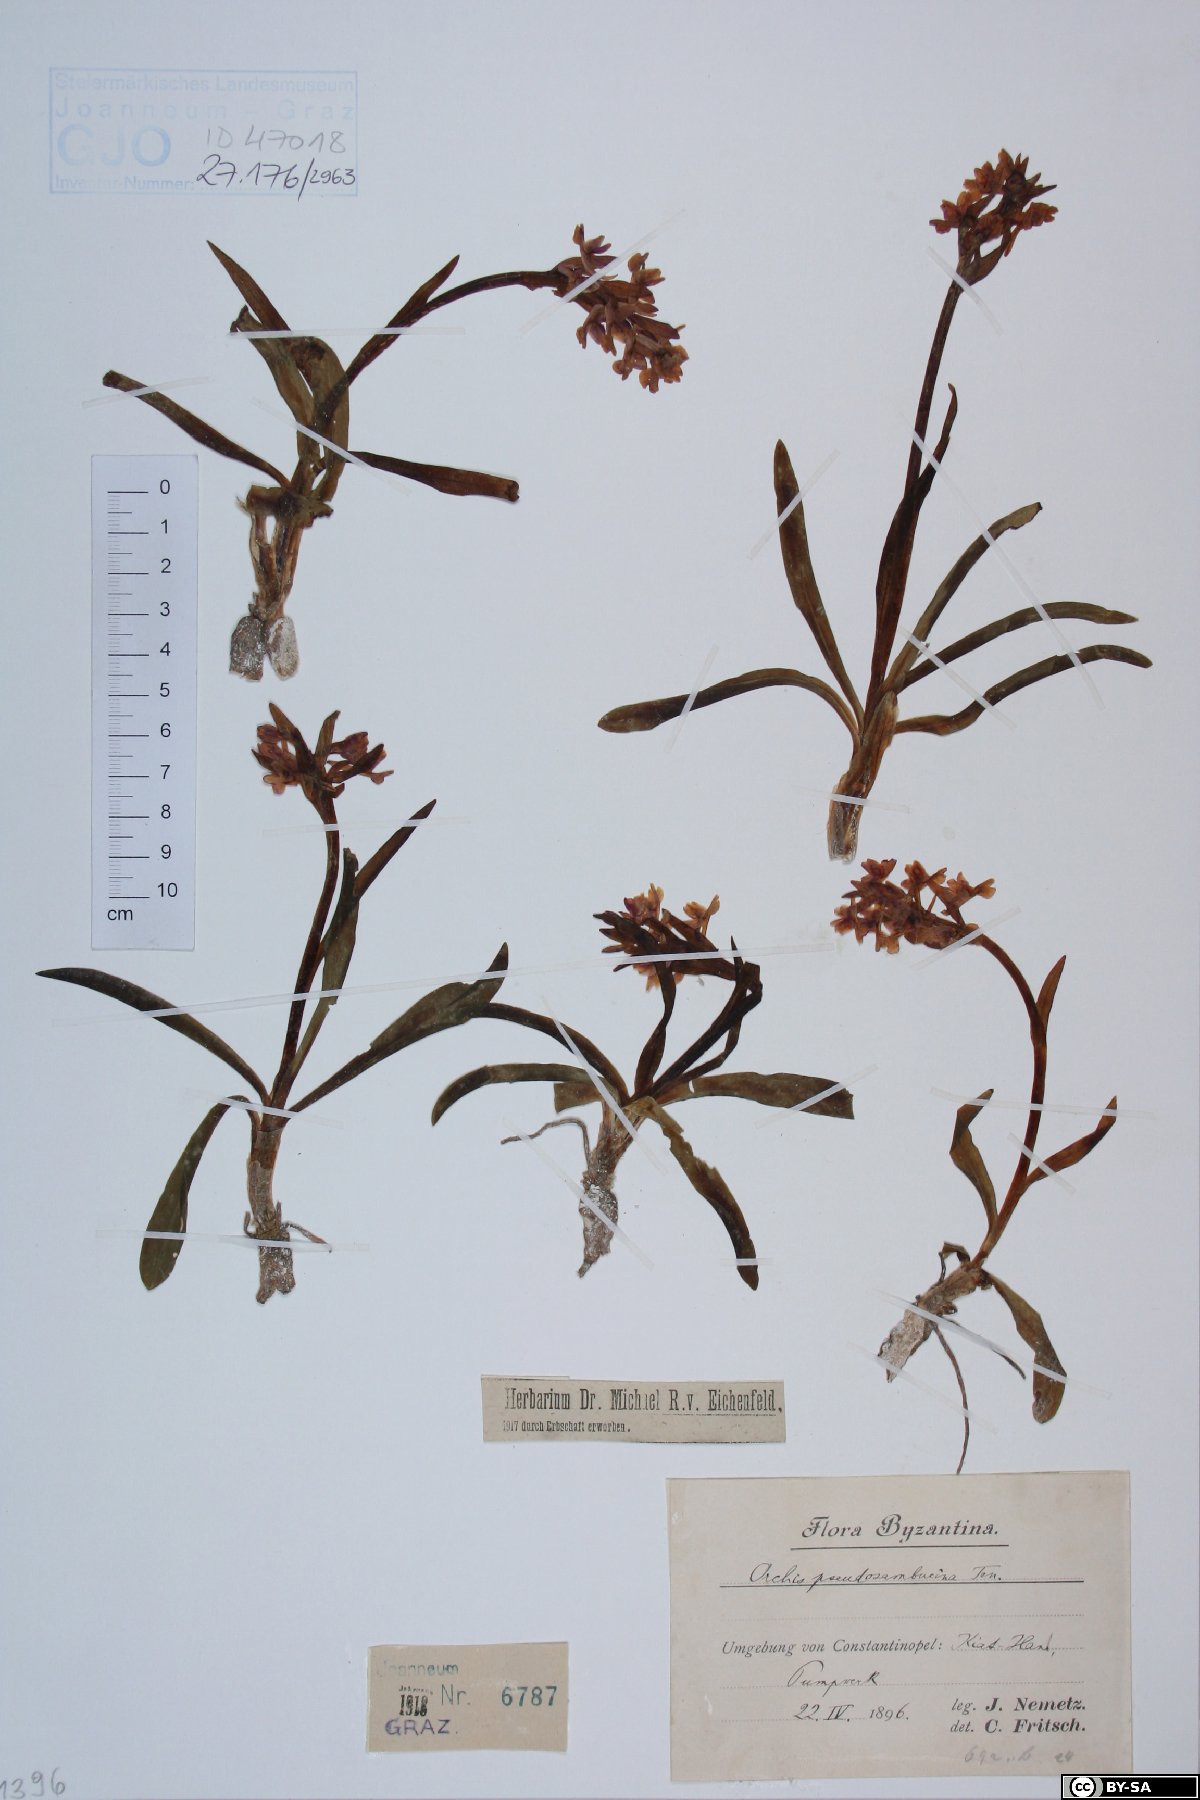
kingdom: Plantae
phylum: Tracheophyta
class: Liliopsida
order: Asparagales
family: Orchidaceae
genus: Dactylorhiza
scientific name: Dactylorhiza romana
